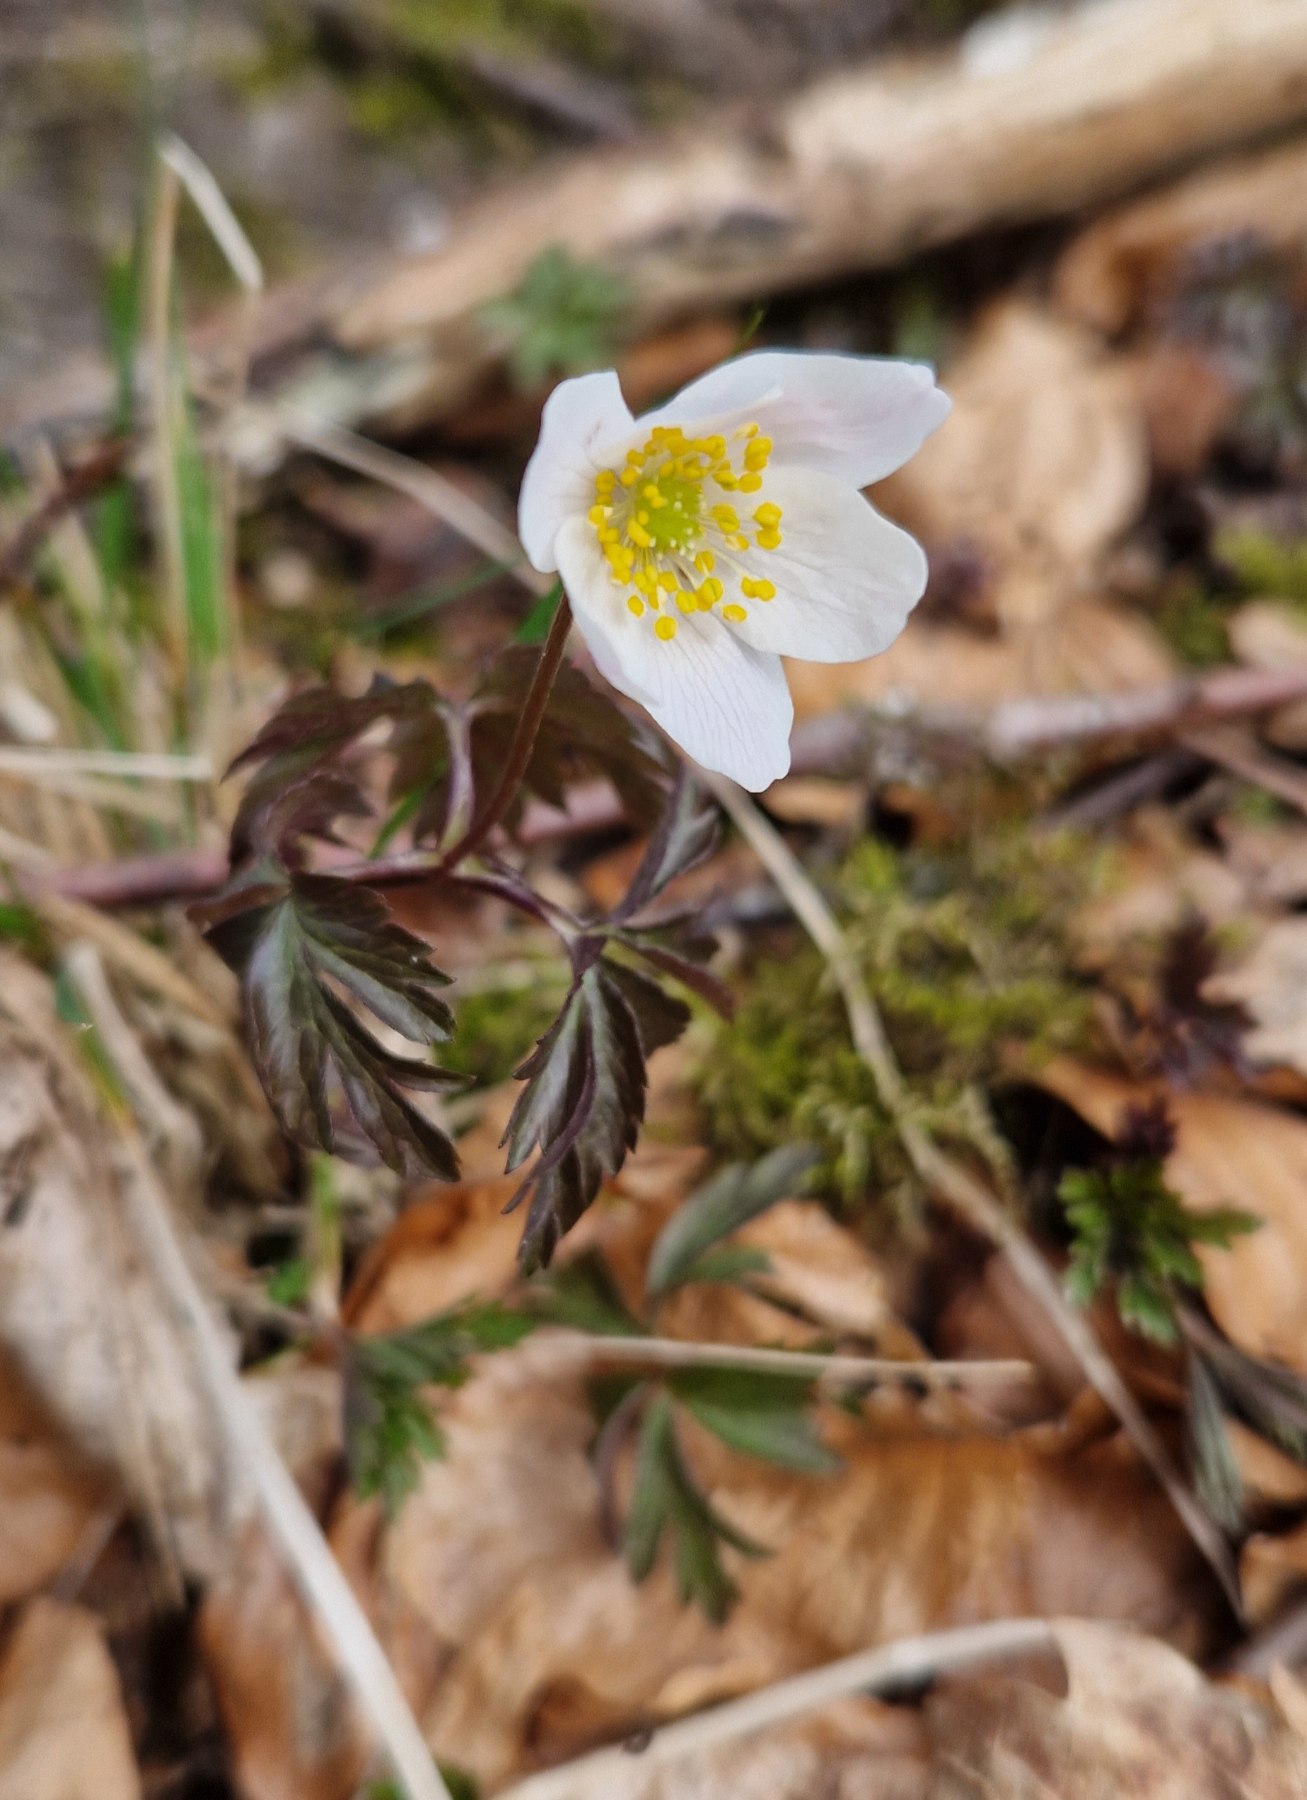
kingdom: Plantae
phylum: Tracheophyta
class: Magnoliopsida
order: Ranunculales
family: Ranunculaceae
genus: Anemone
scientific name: Anemone nemorosa
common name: Hvid anemone
